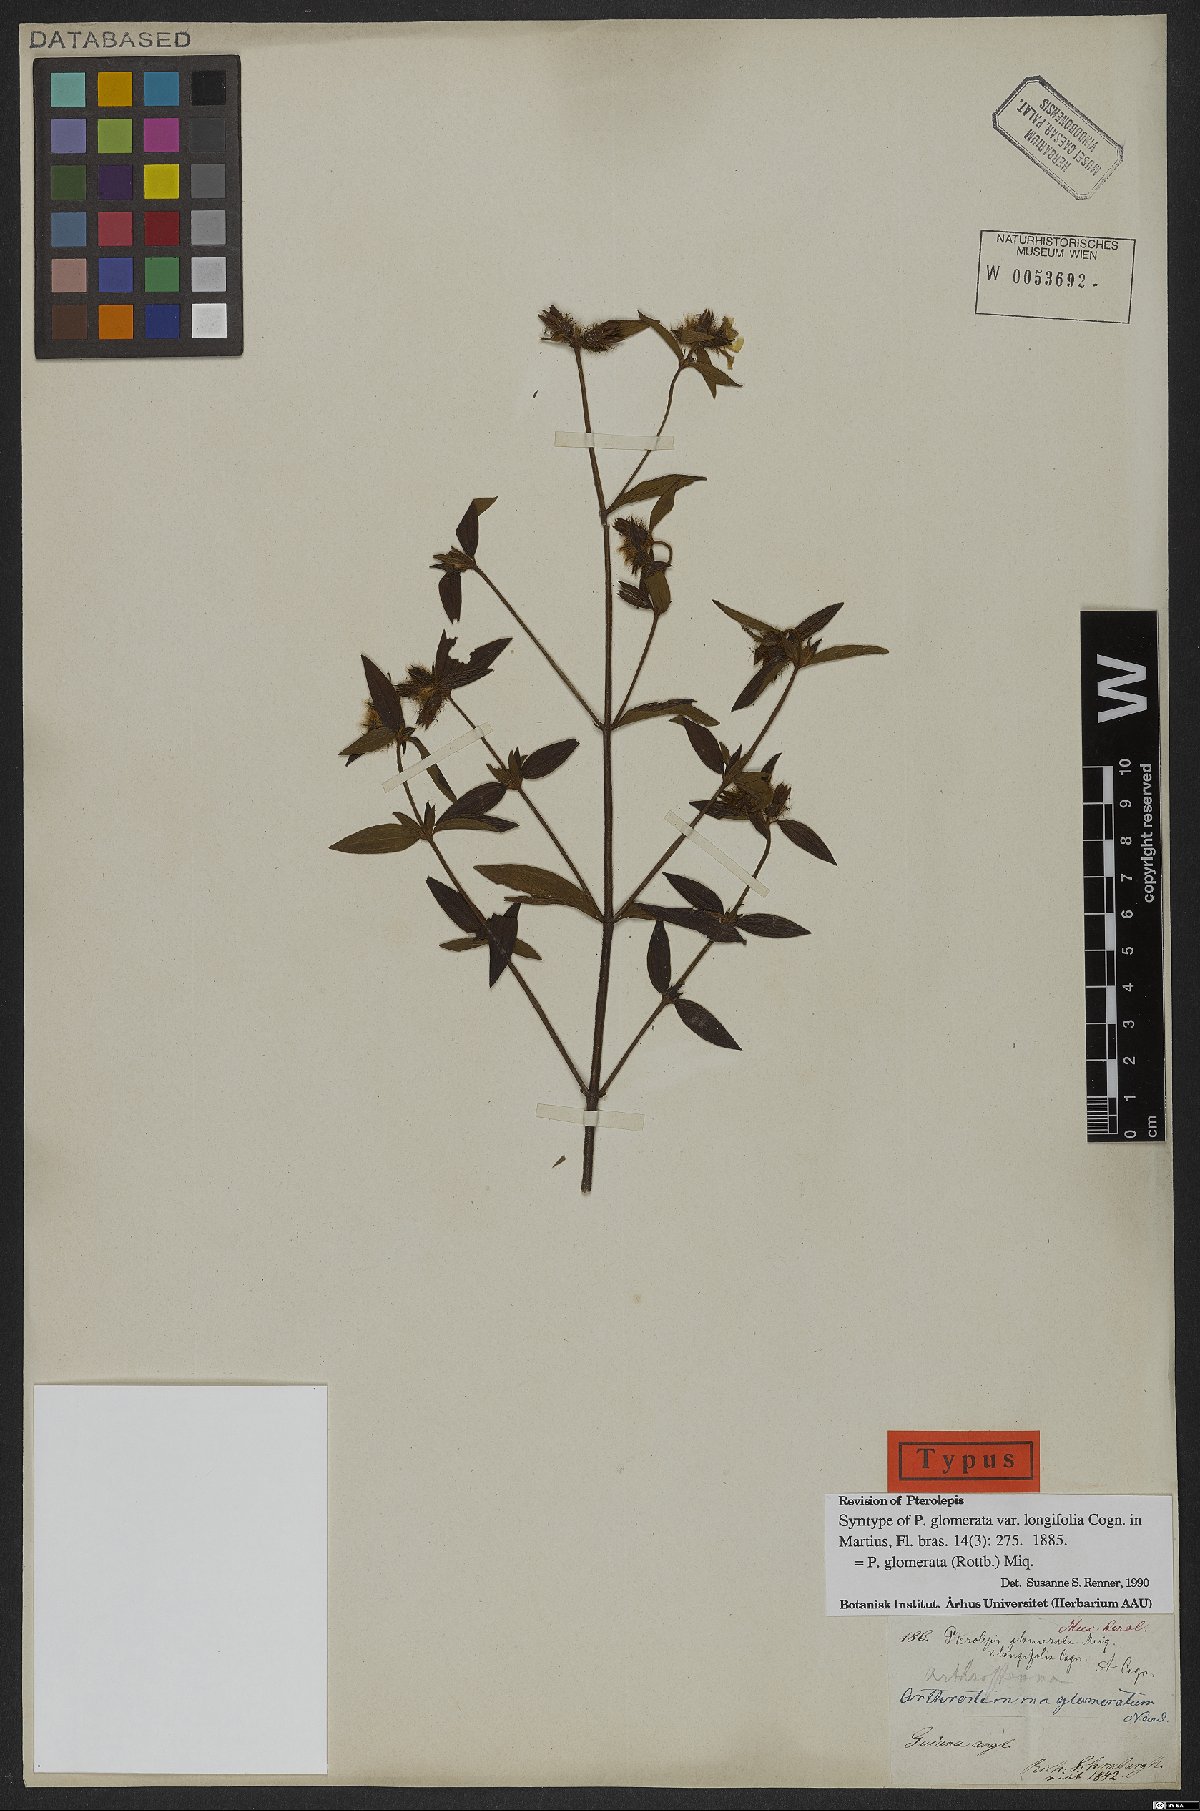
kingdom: Plantae
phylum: Tracheophyta
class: Magnoliopsida
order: Myrtales
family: Melastomataceae
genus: Pterolepis
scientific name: Pterolepis glomerata
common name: False meadowbeauty
